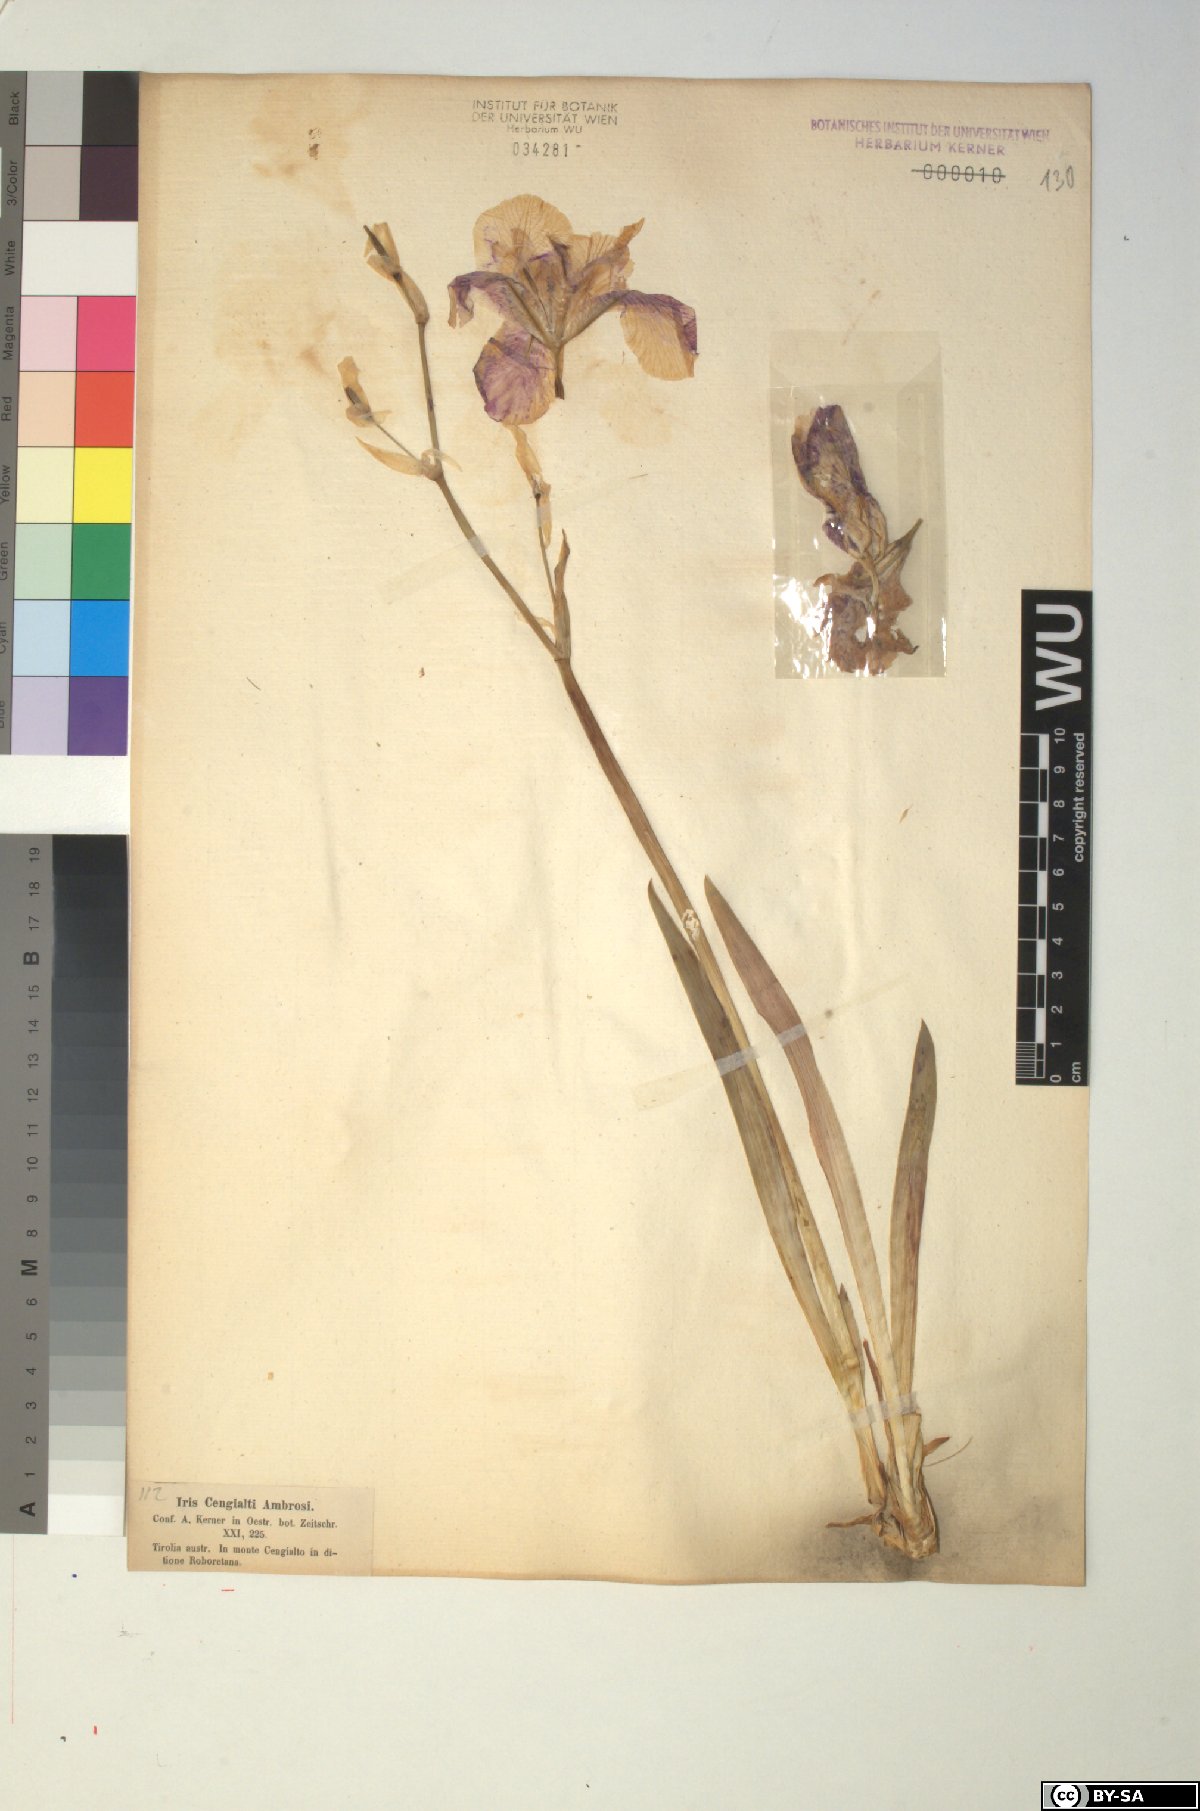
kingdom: Plantae
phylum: Tracheophyta
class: Liliopsida
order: Asparagales
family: Iridaceae
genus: Iris
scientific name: Iris pallida
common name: Sweet iris
